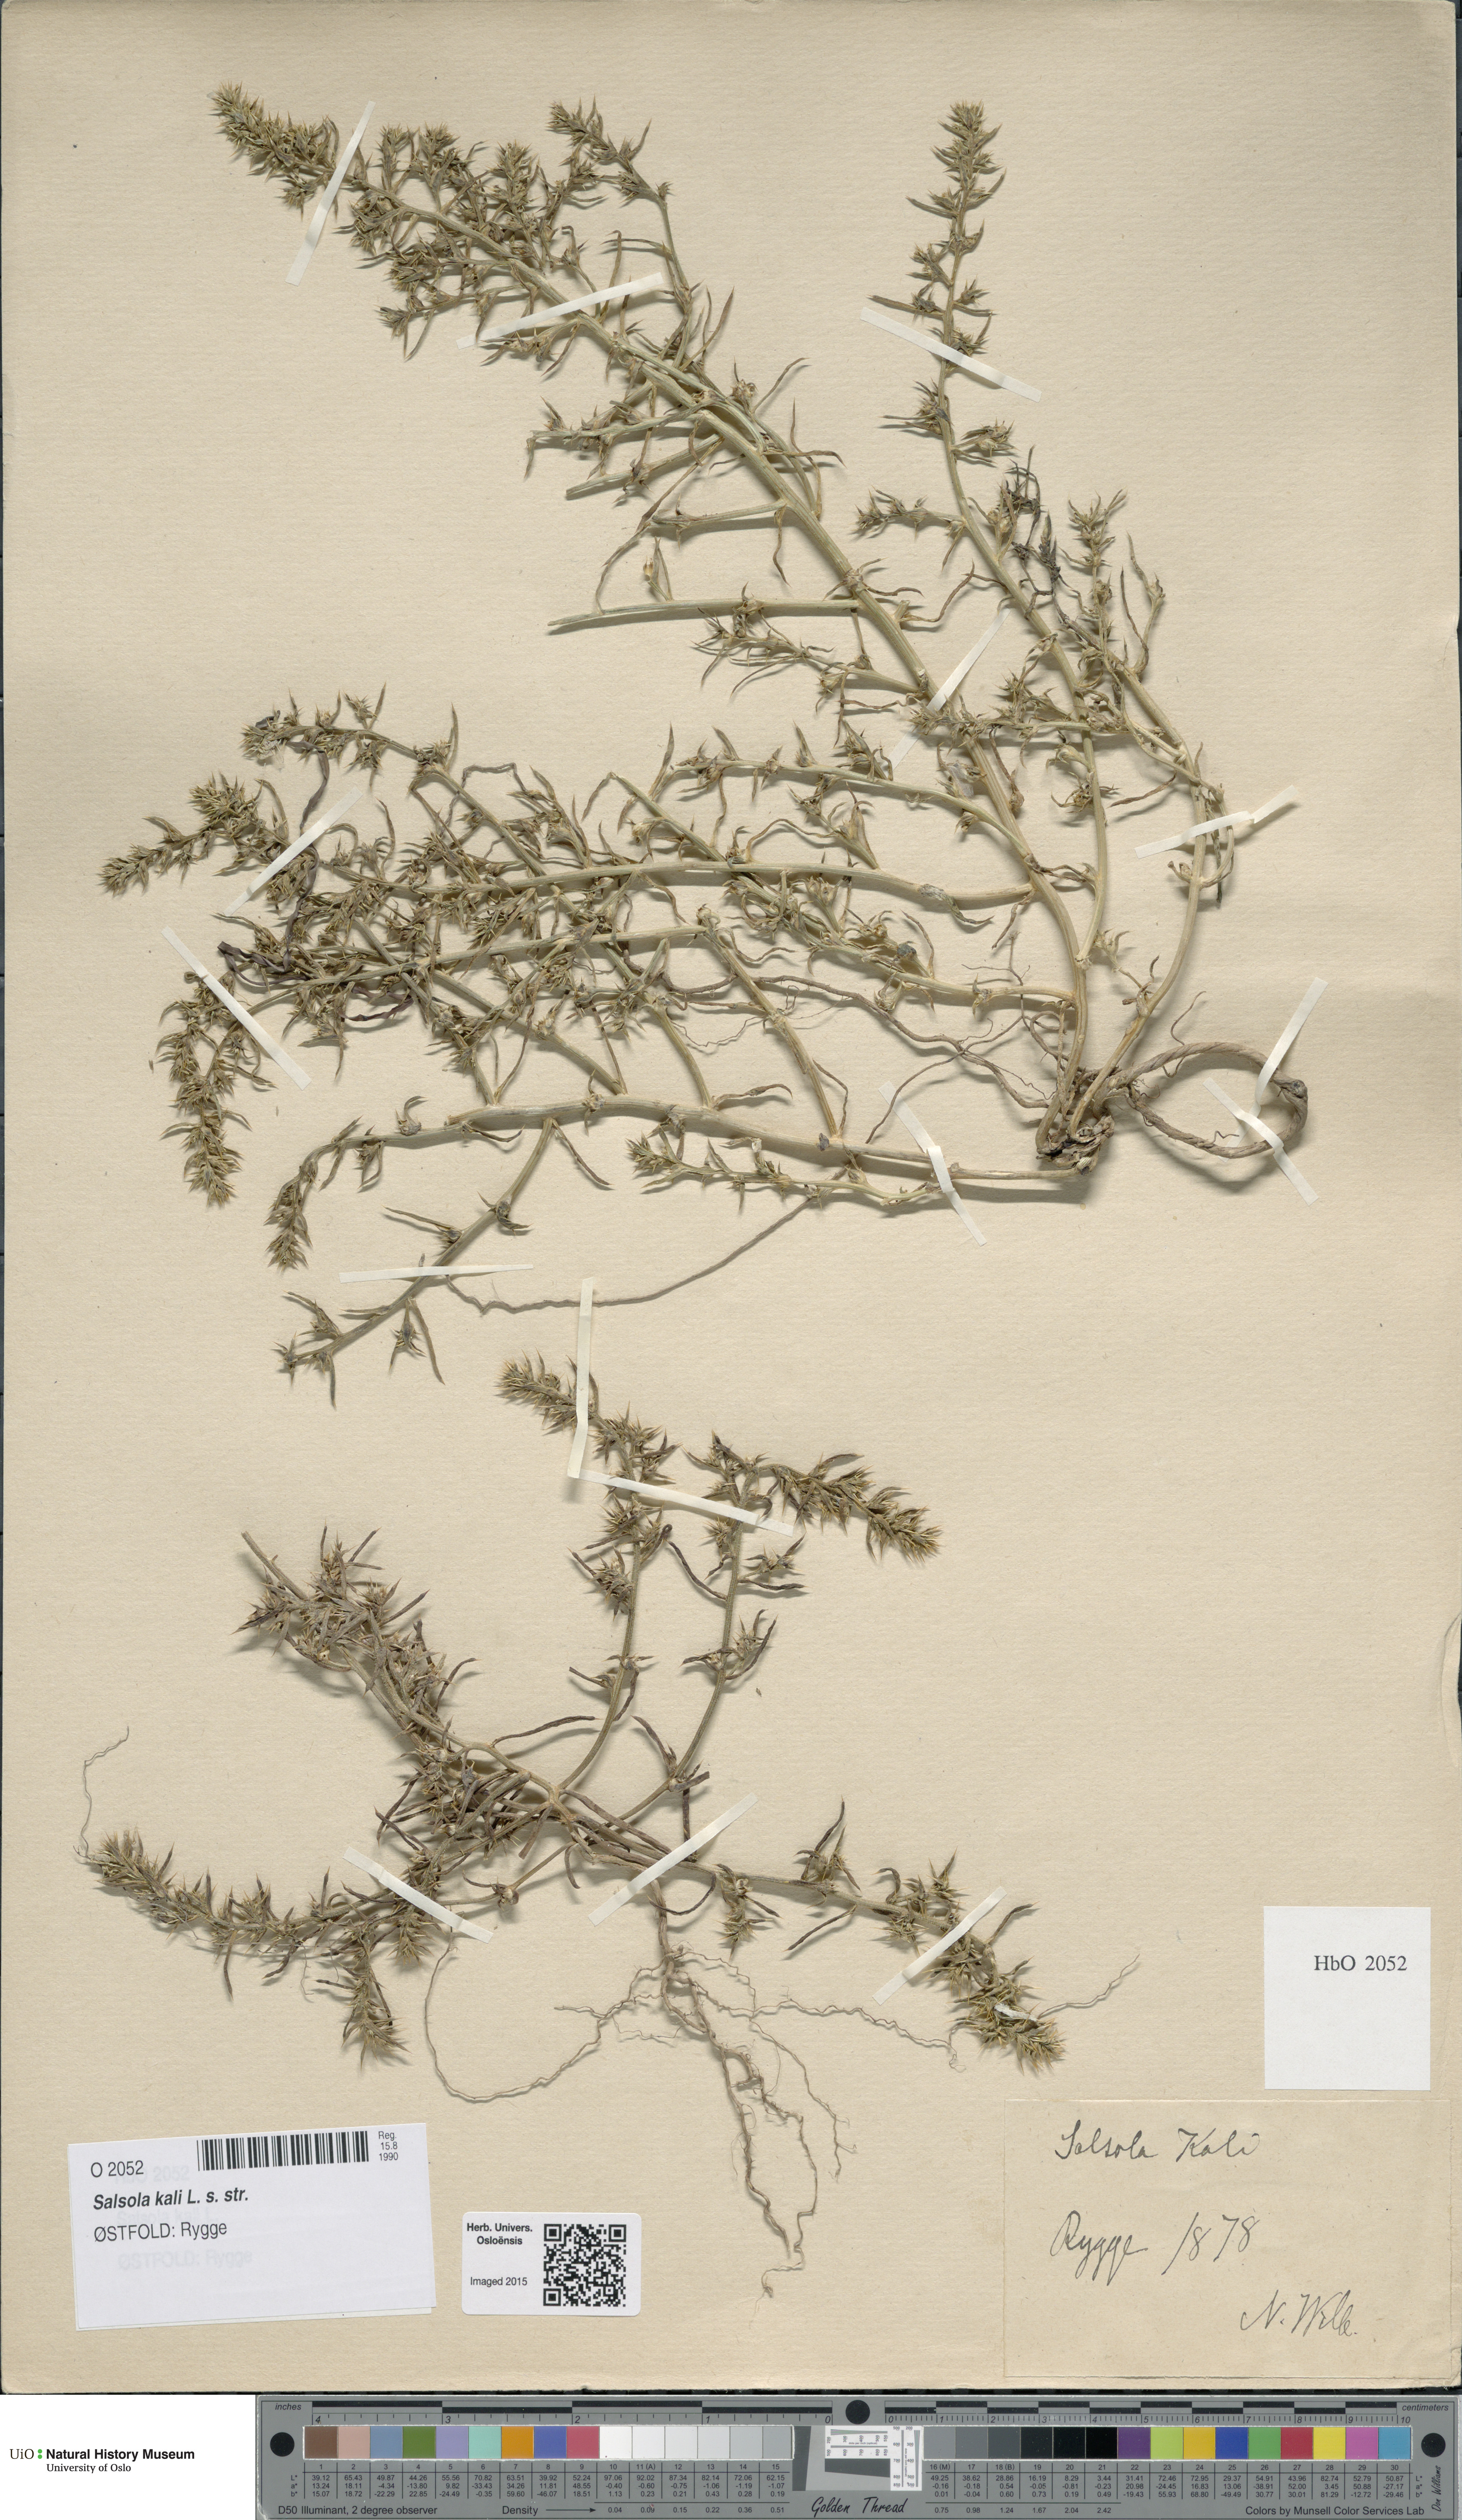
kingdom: Plantae
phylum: Tracheophyta
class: Magnoliopsida
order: Caryophyllales
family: Amaranthaceae
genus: Salsola
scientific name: Salsola kali
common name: Saltwort
